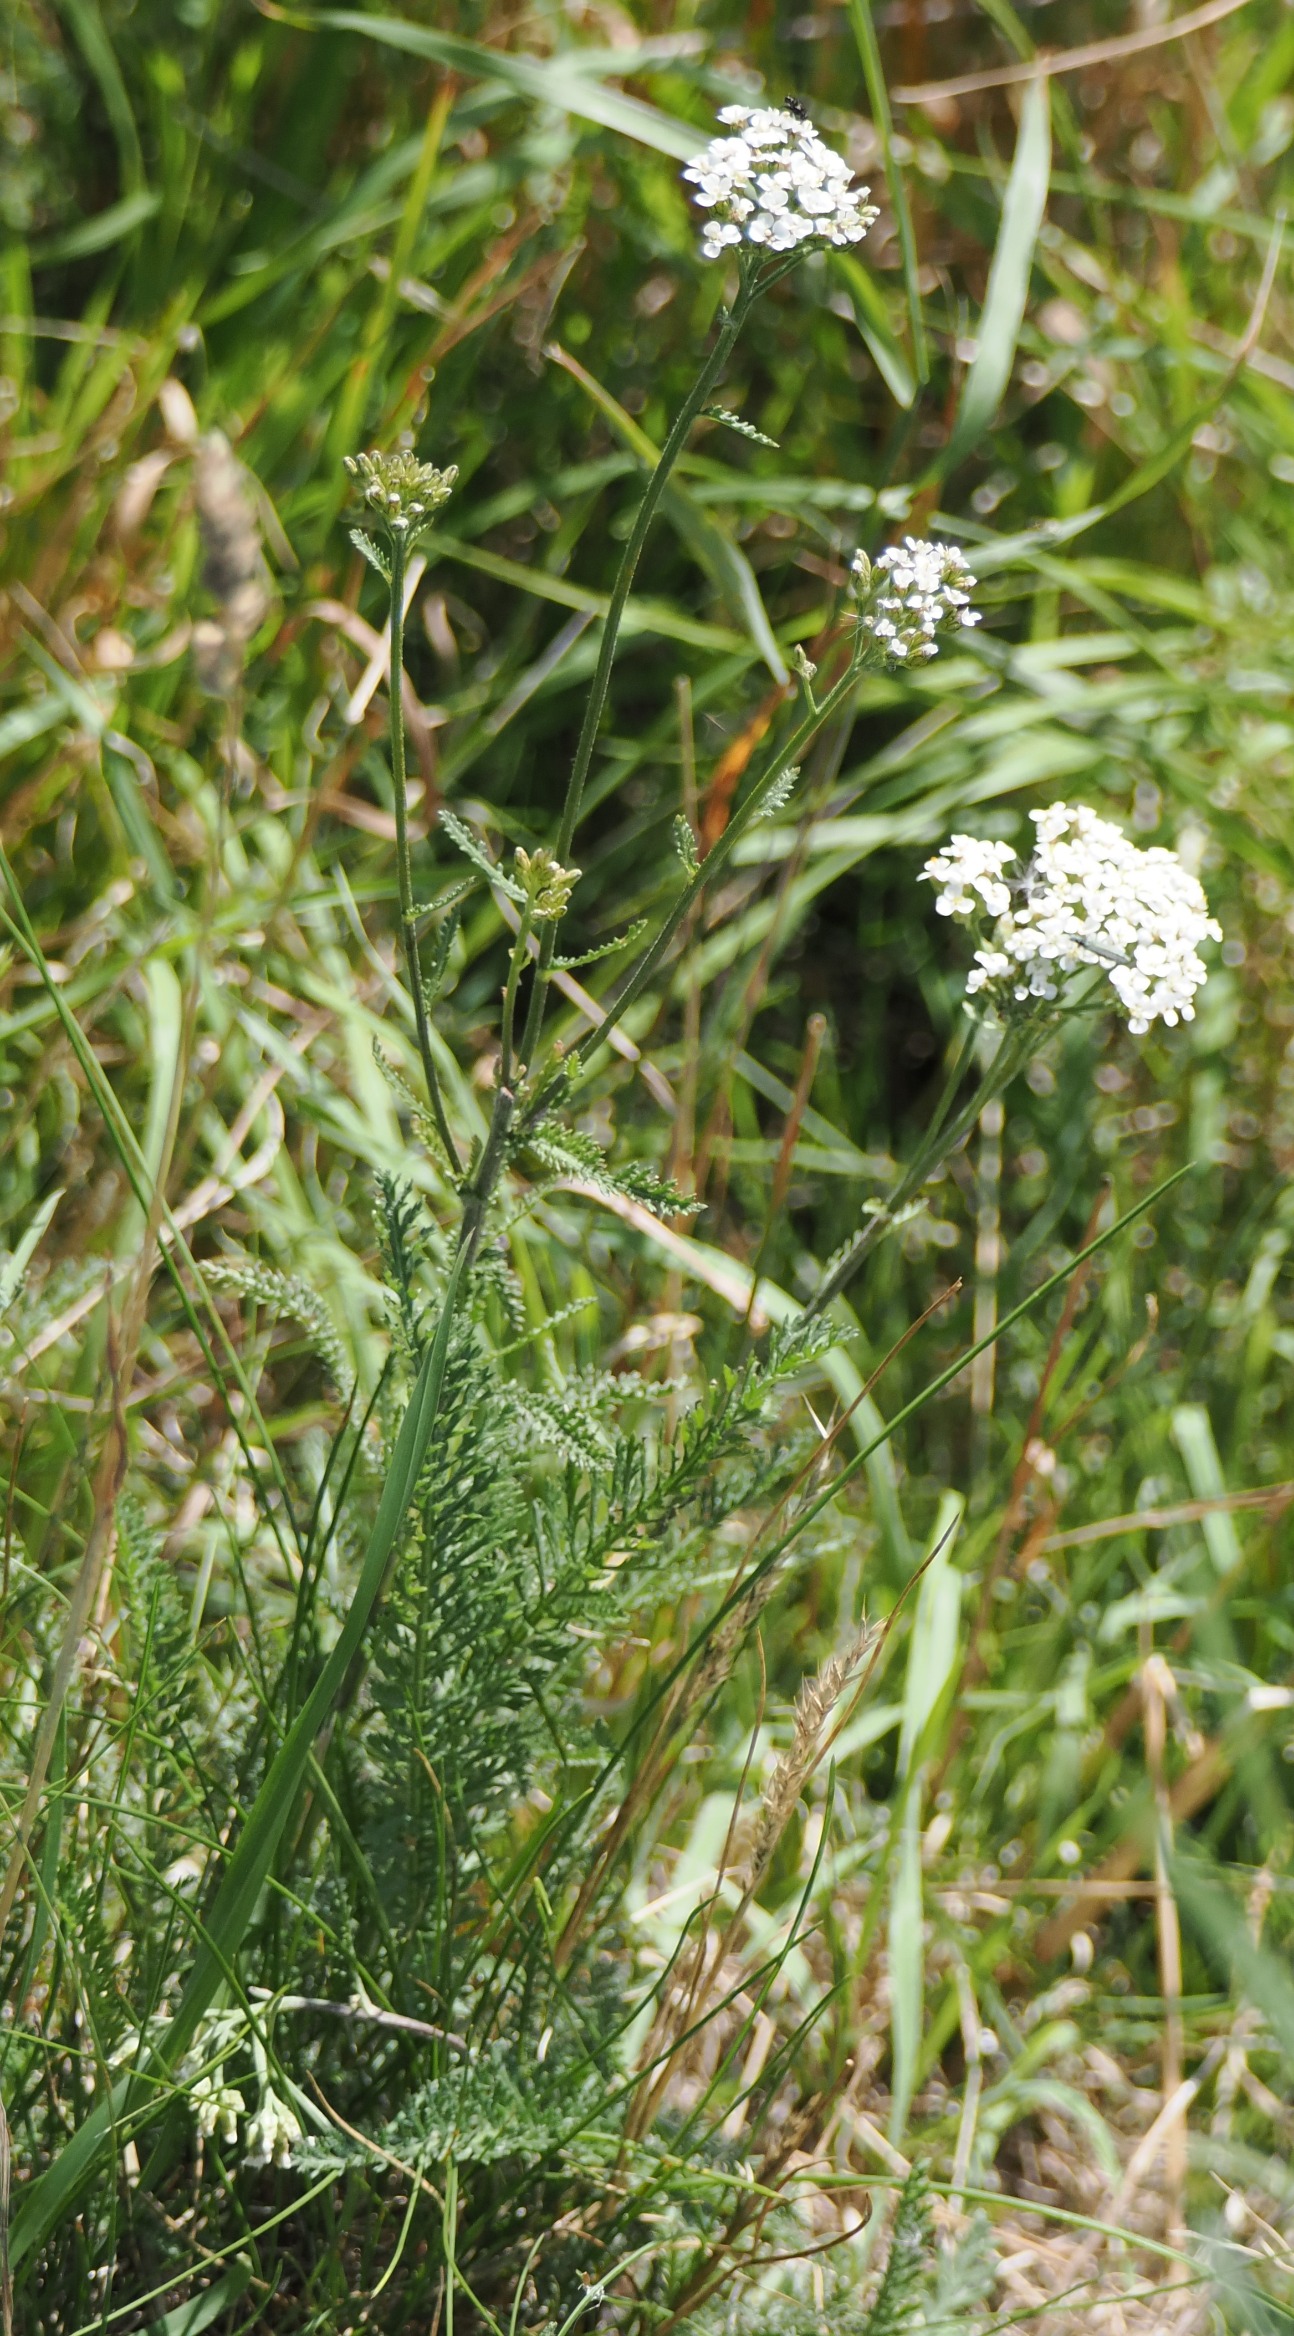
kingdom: Plantae
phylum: Tracheophyta
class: Magnoliopsida
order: Asterales
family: Asteraceae
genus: Achillea
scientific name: Achillea millefolium
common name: Almindelig røllike
